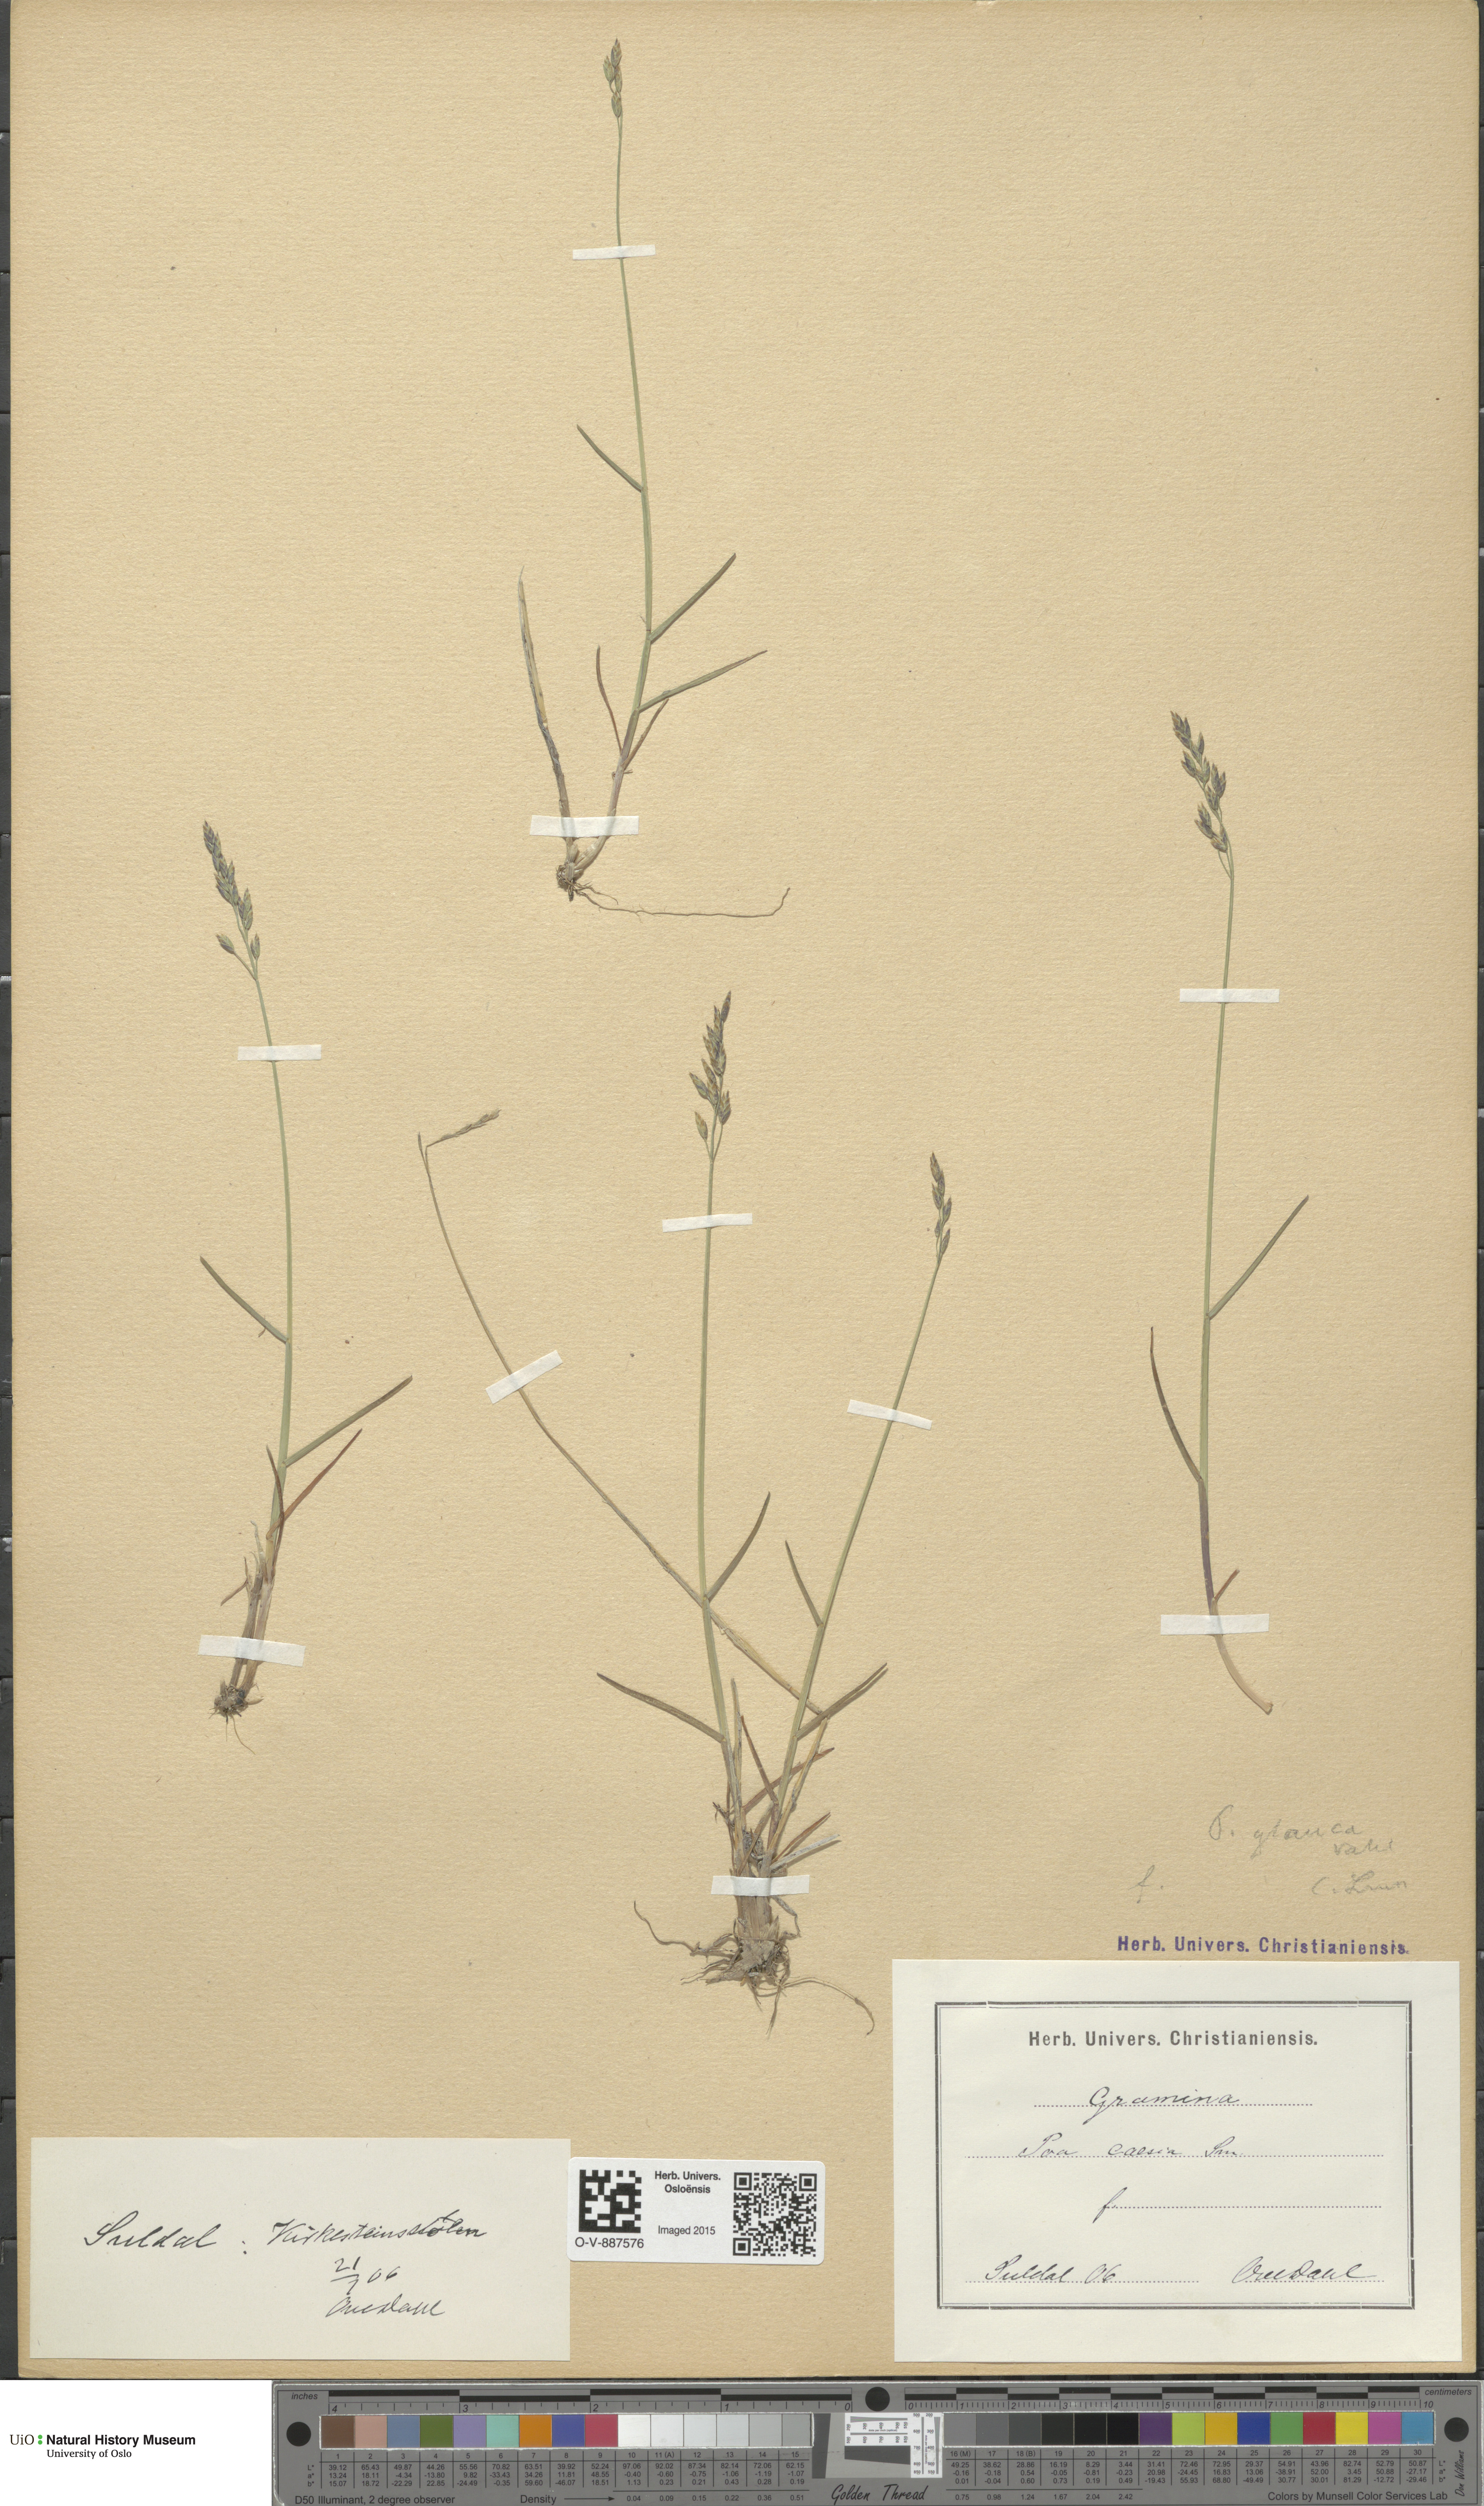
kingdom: Plantae
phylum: Tracheophyta
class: Liliopsida
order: Poales
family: Poaceae
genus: Poa
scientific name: Poa glauca
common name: Glaucous bluegrass
